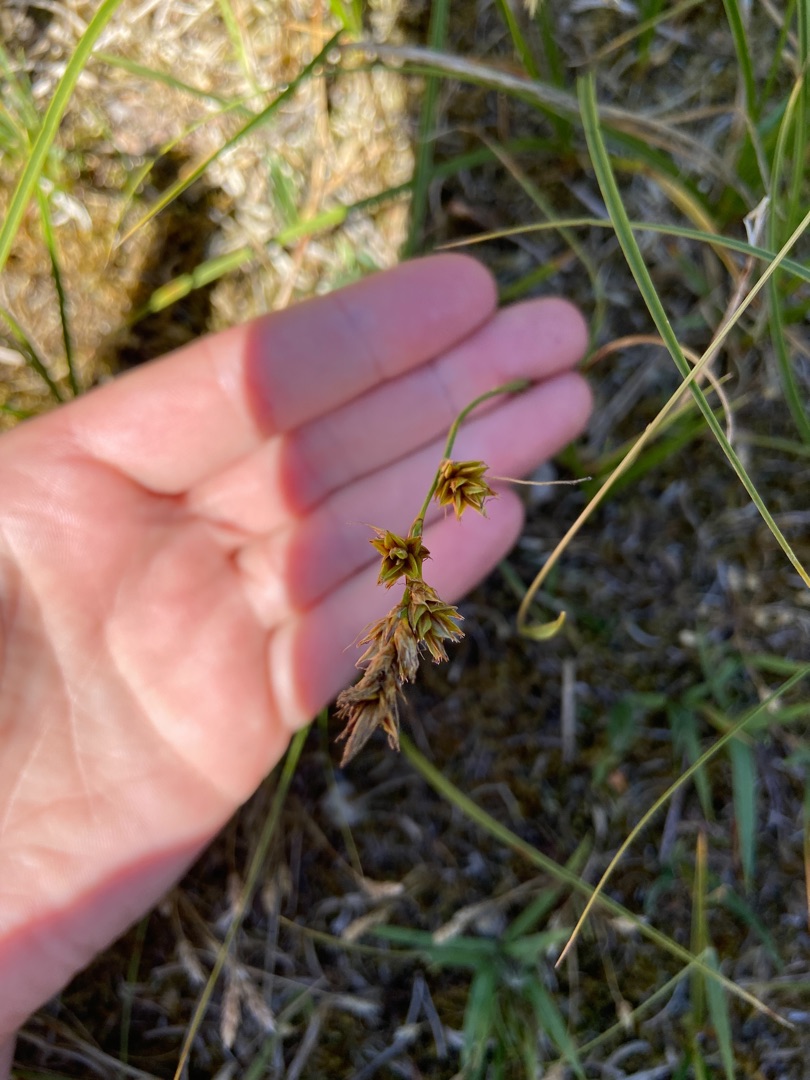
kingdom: Plantae
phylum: Tracheophyta
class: Liliopsida
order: Poales
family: Cyperaceae
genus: Carex
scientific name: Carex arenaria
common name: Sand-star
